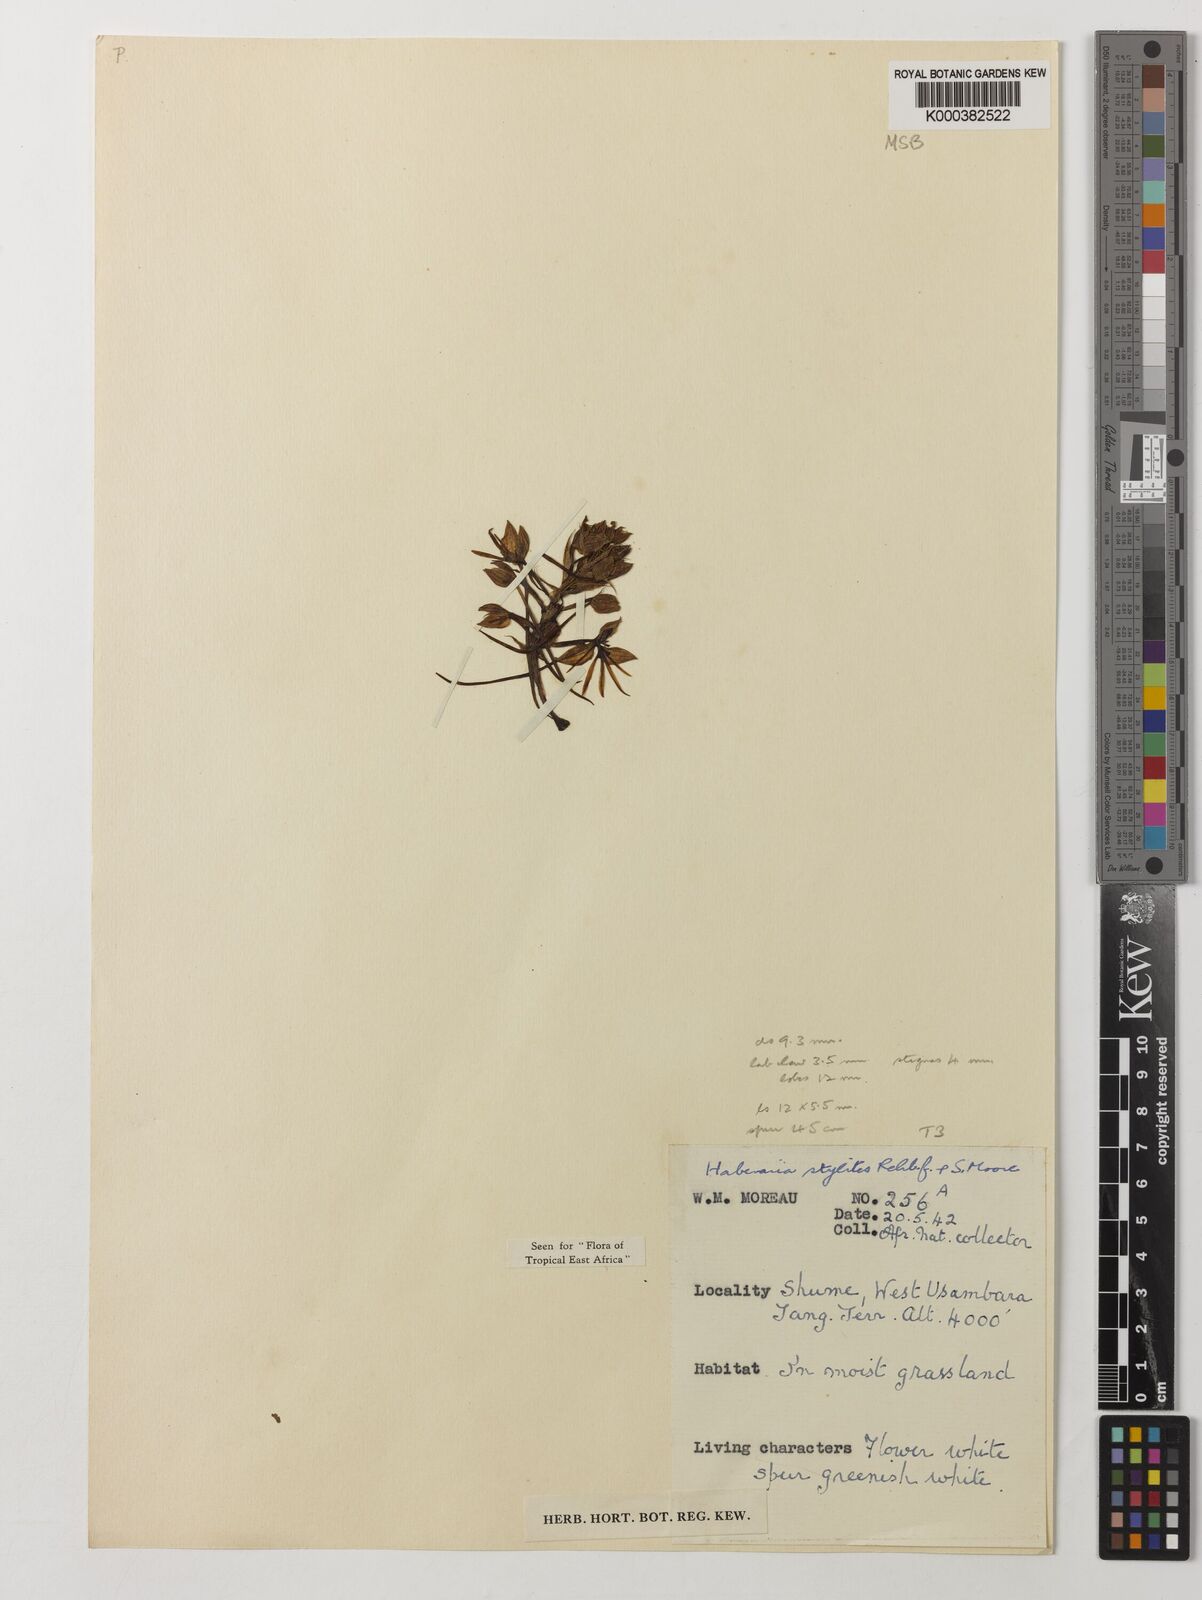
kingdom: Plantae
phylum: Tracheophyta
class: Liliopsida
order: Asparagales
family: Orchidaceae
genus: Habenaria
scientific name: Habenaria stylites
